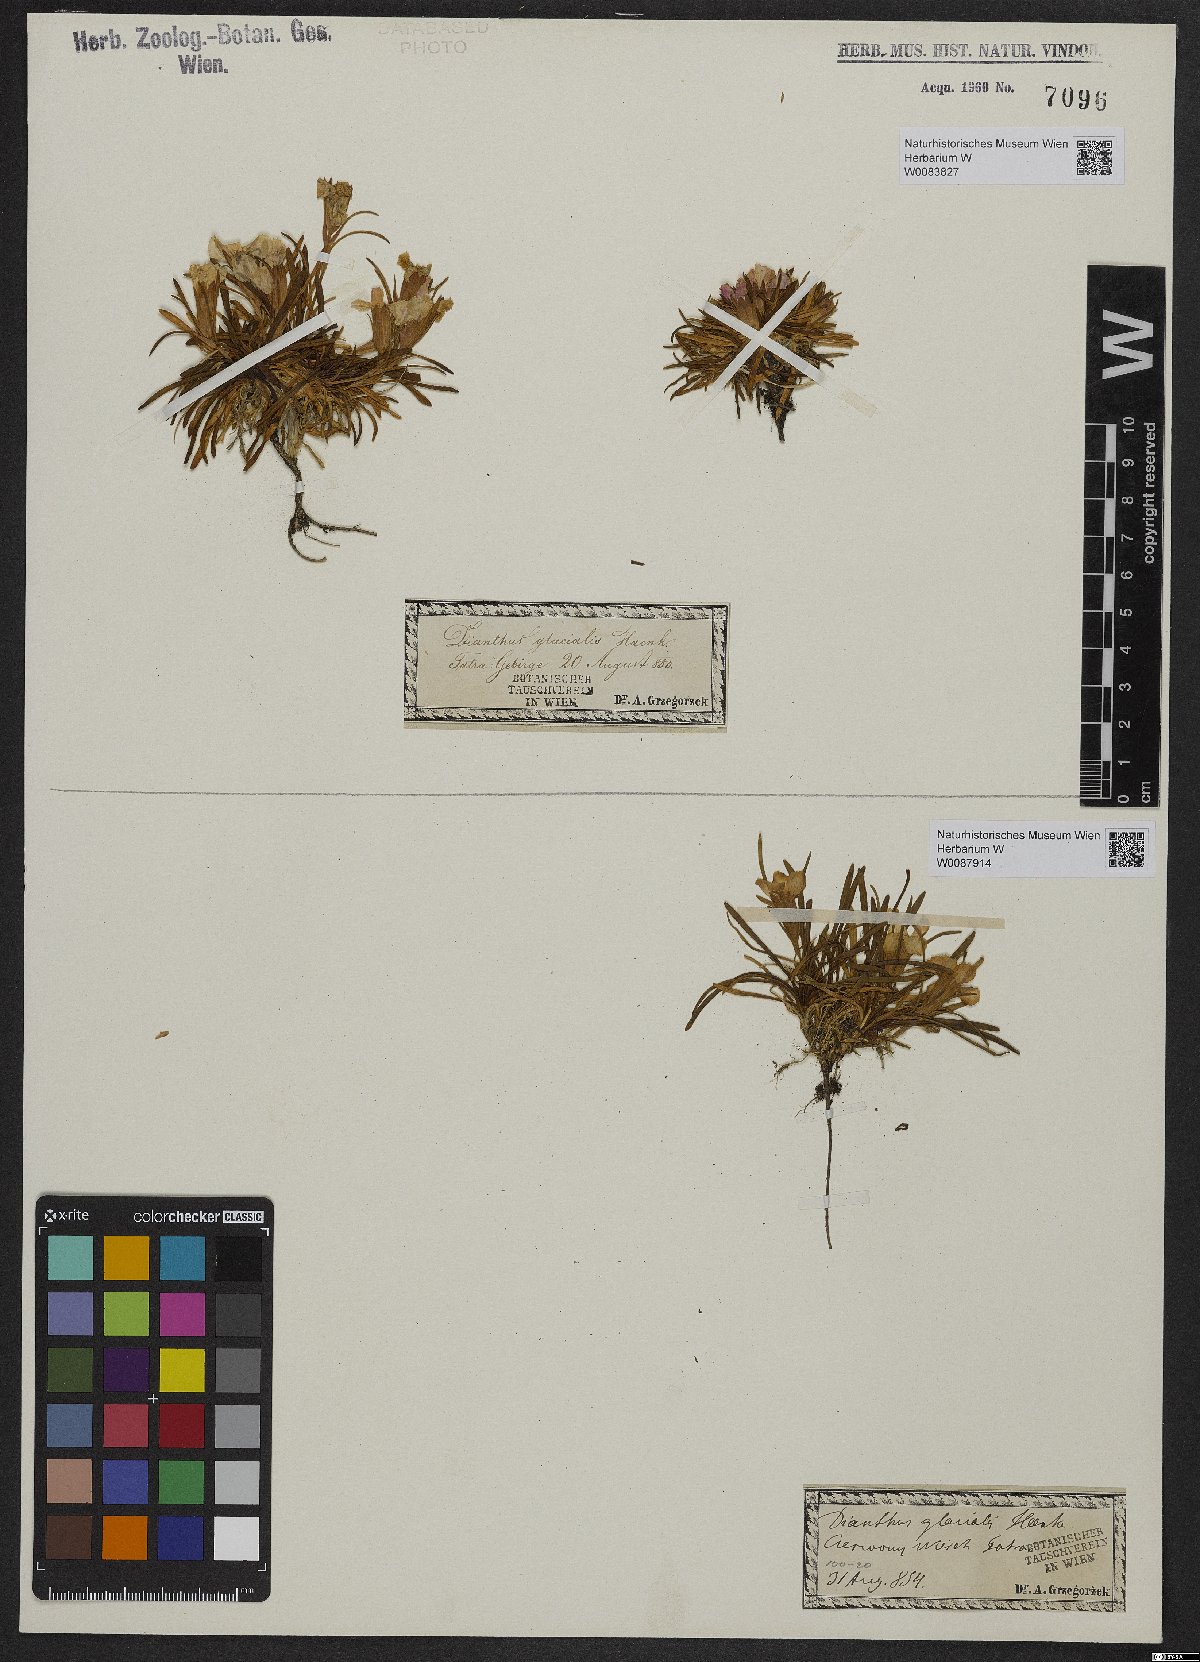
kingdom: Plantae
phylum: Tracheophyta
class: Magnoliopsida
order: Caryophyllales
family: Caryophyllaceae
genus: Dianthus
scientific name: Dianthus glacialis
